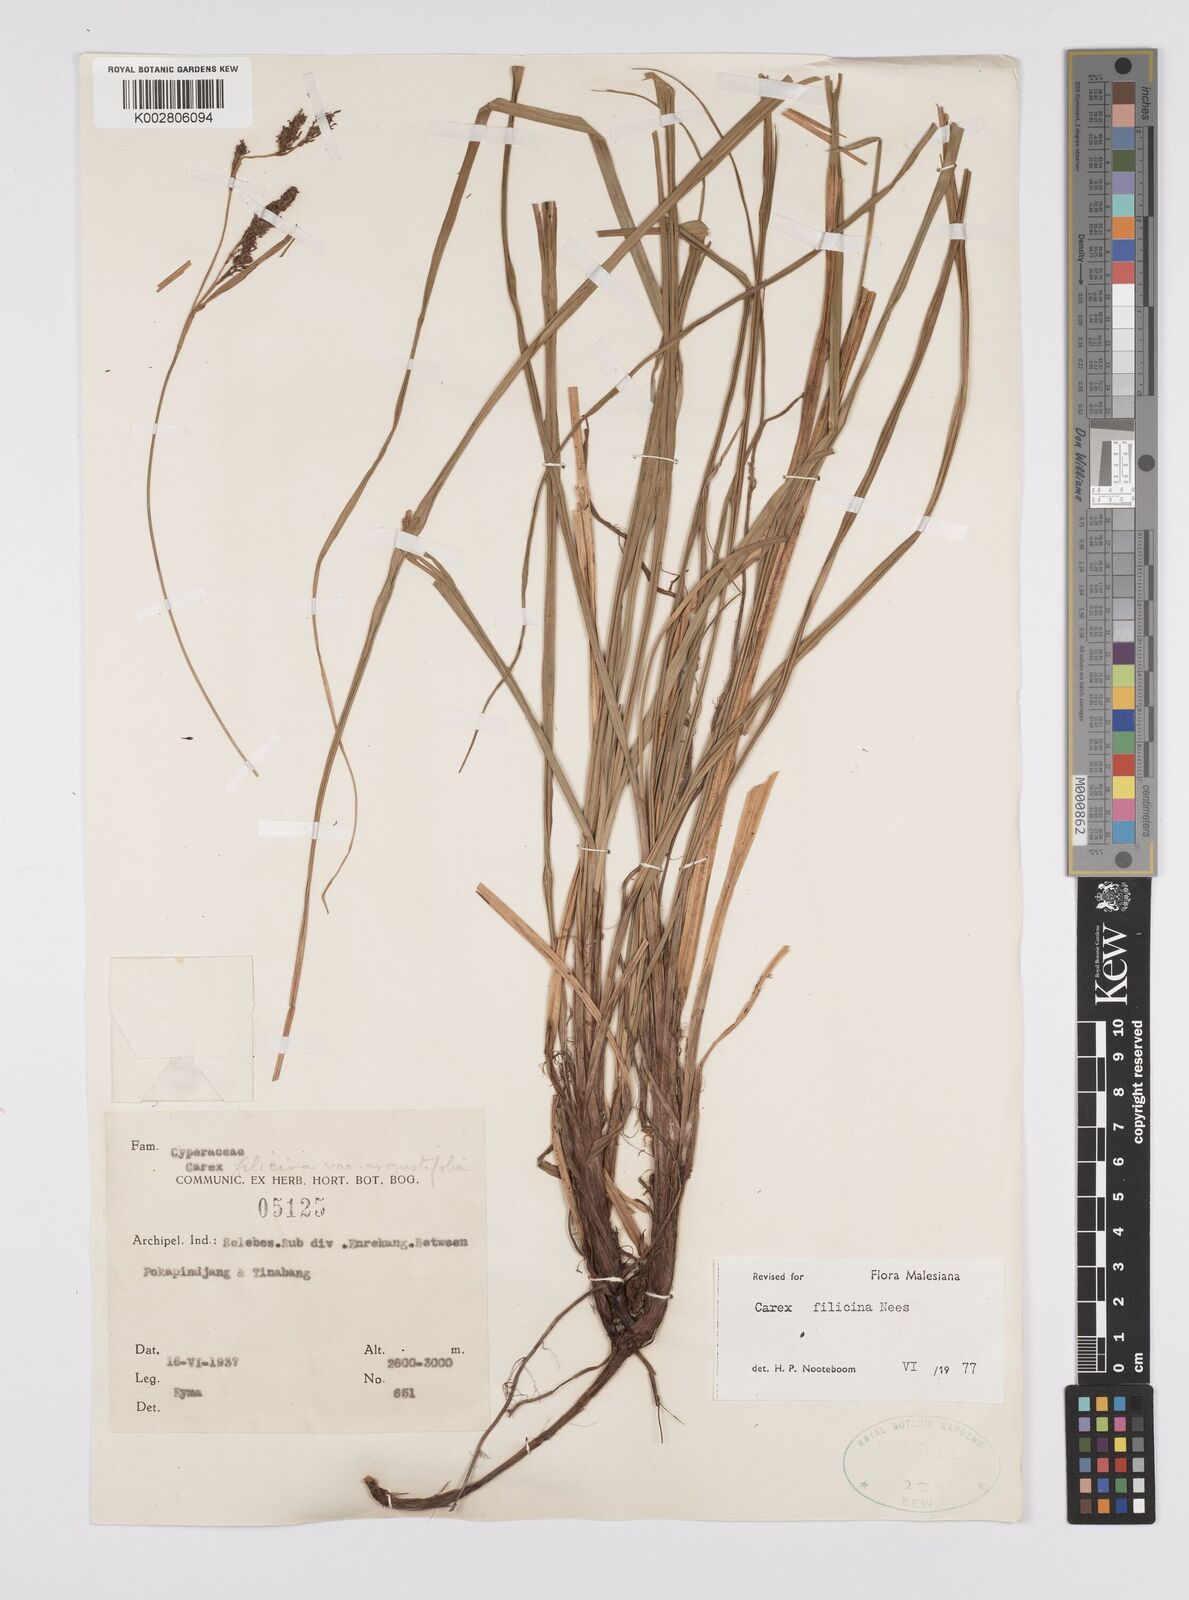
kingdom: Plantae
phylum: Tracheophyta
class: Liliopsida
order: Poales
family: Cyperaceae
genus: Carex
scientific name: Carex filicina
